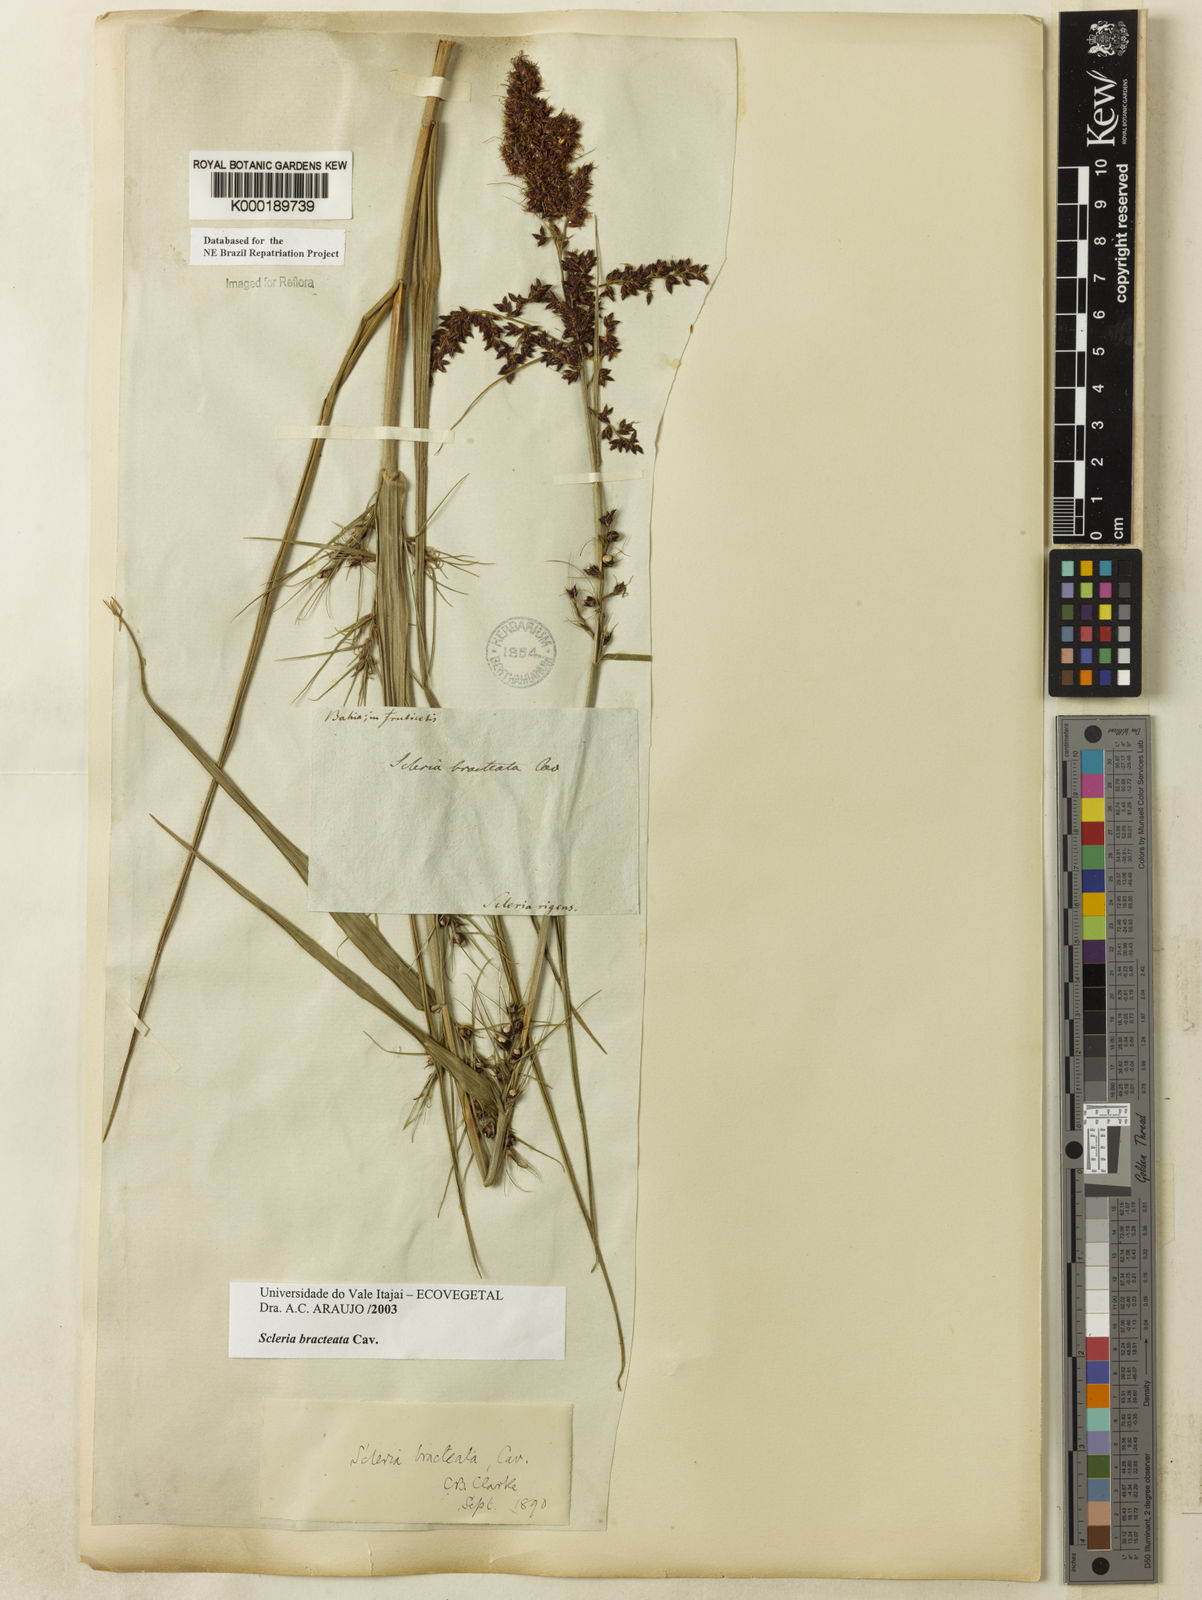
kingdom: Plantae
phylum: Tracheophyta
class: Liliopsida
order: Poales
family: Cyperaceae
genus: Scleria
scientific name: Scleria bracteata
